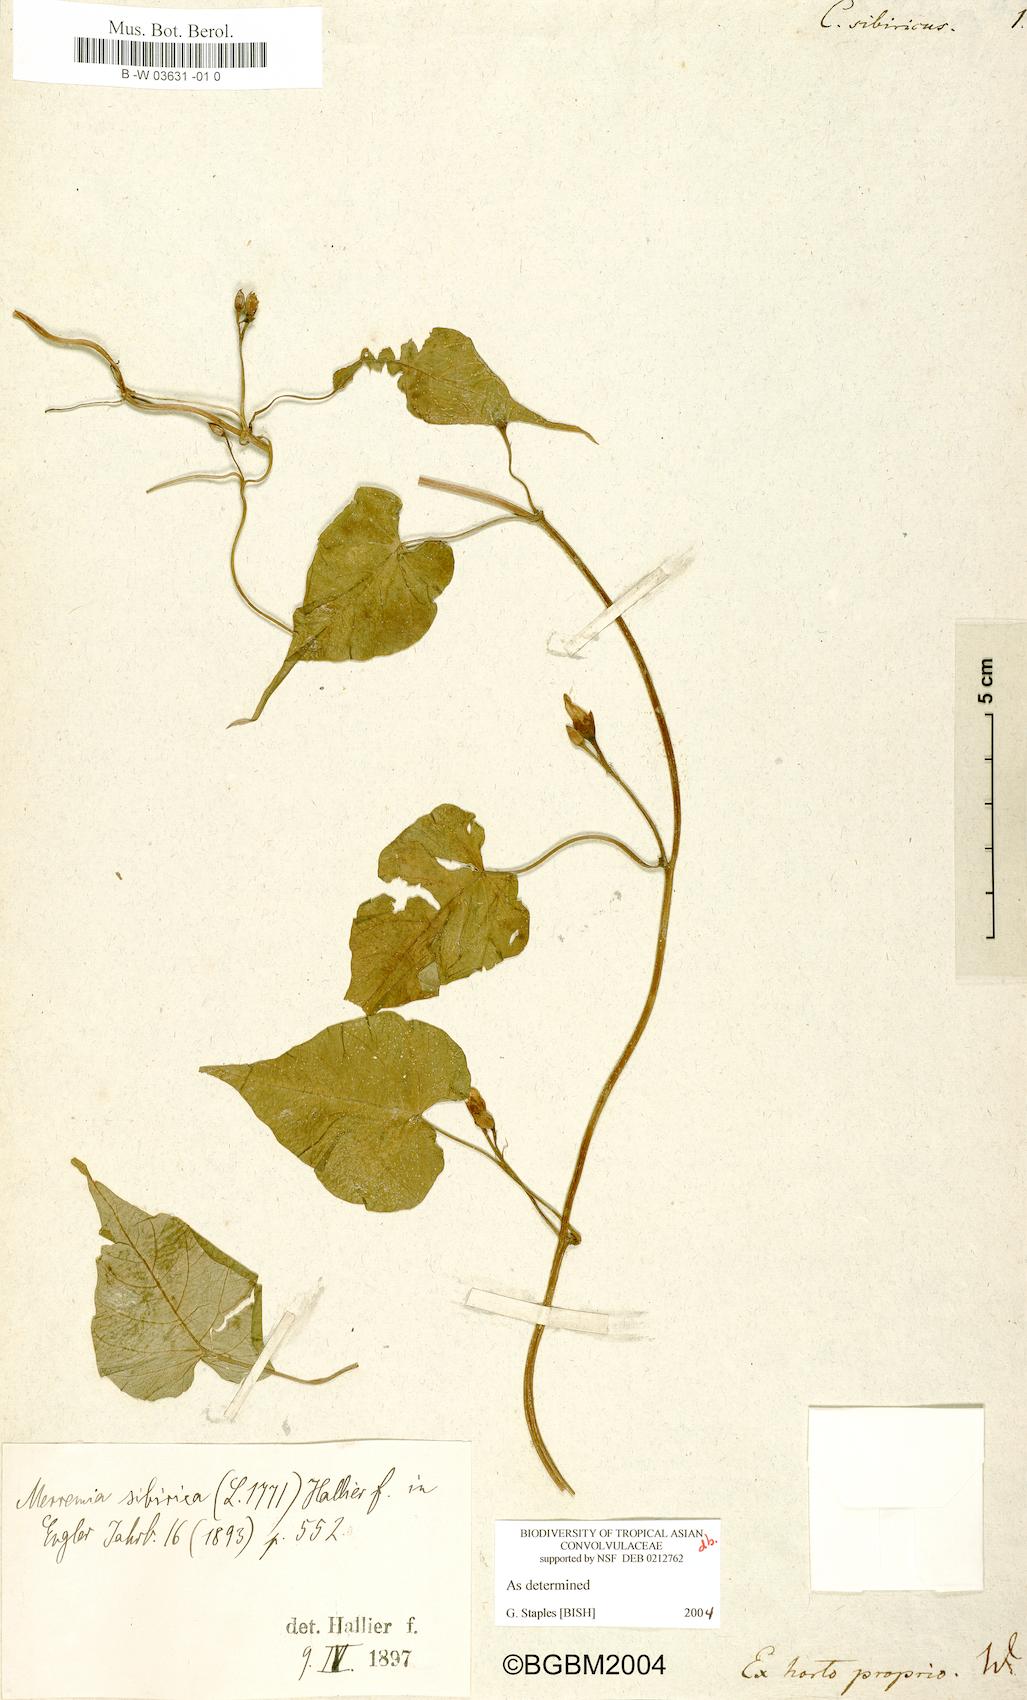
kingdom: Plantae
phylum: Tracheophyta
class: Magnoliopsida
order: Solanales
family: Convolvulaceae
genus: Merremia
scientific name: Merremia sibirica
